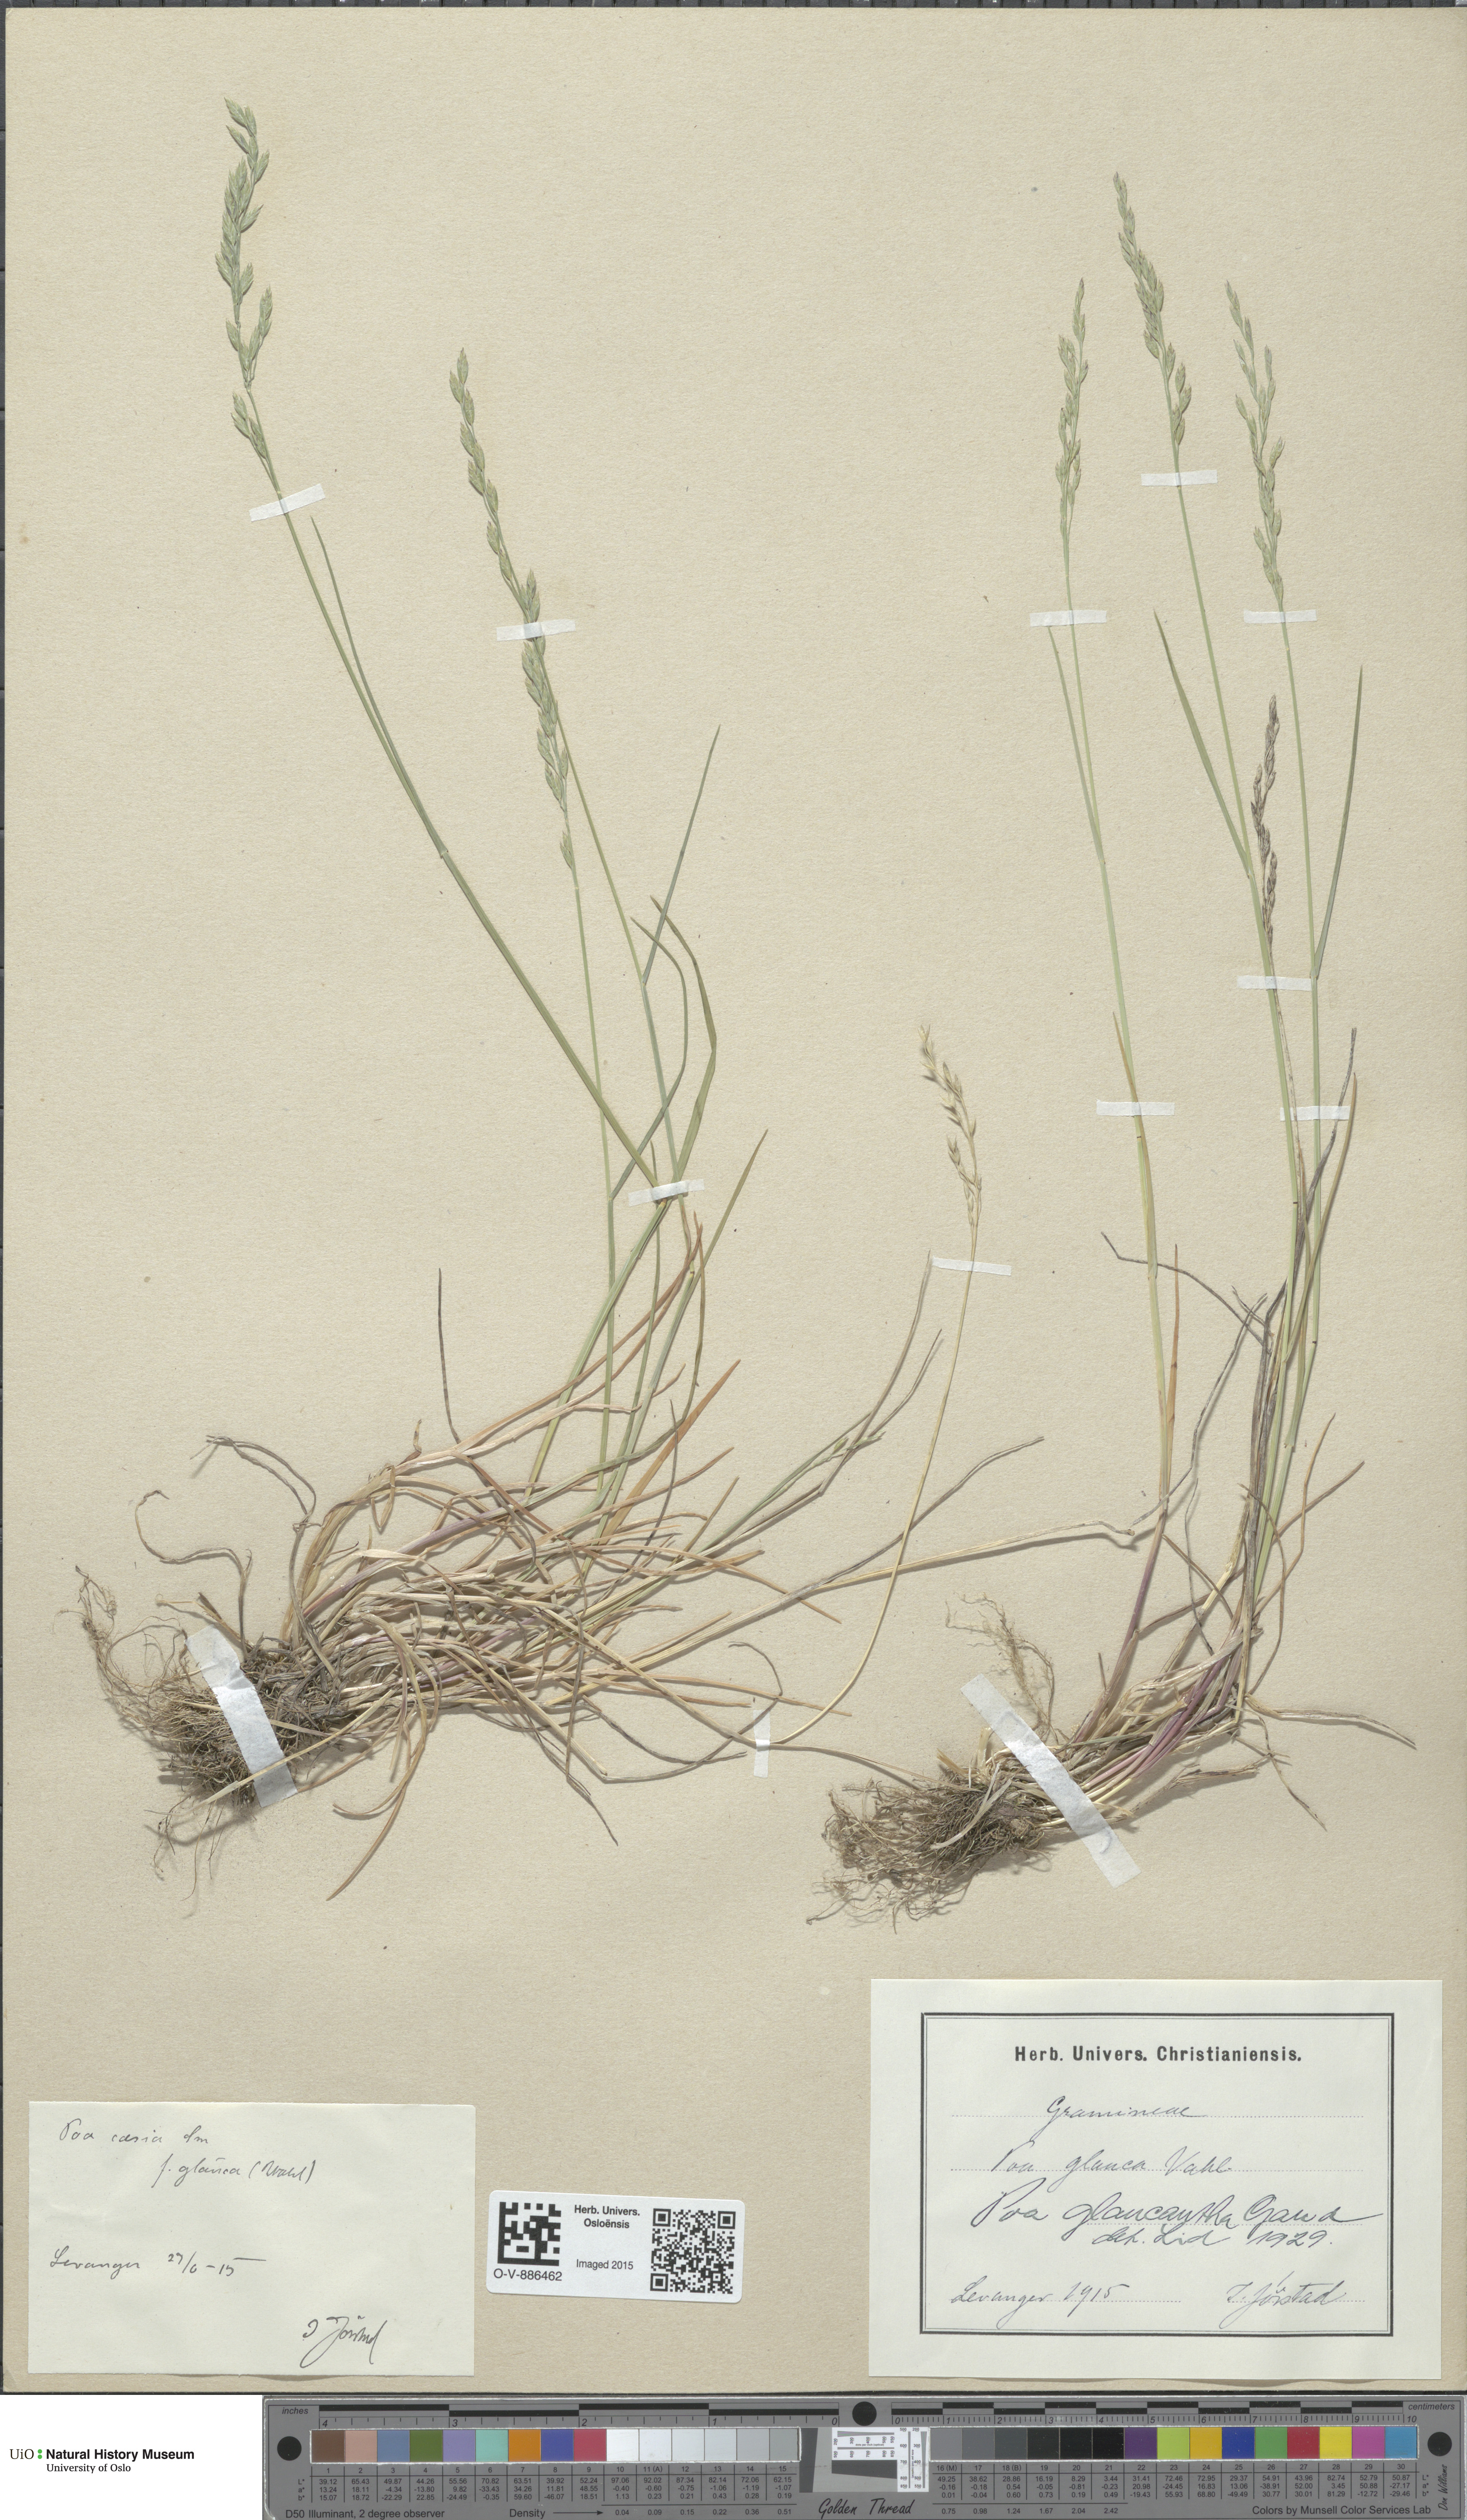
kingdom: Plantae
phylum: Tracheophyta
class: Liliopsida
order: Poales
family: Poaceae
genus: Poa
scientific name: Poa nemoralis
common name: Wood bluegrass
